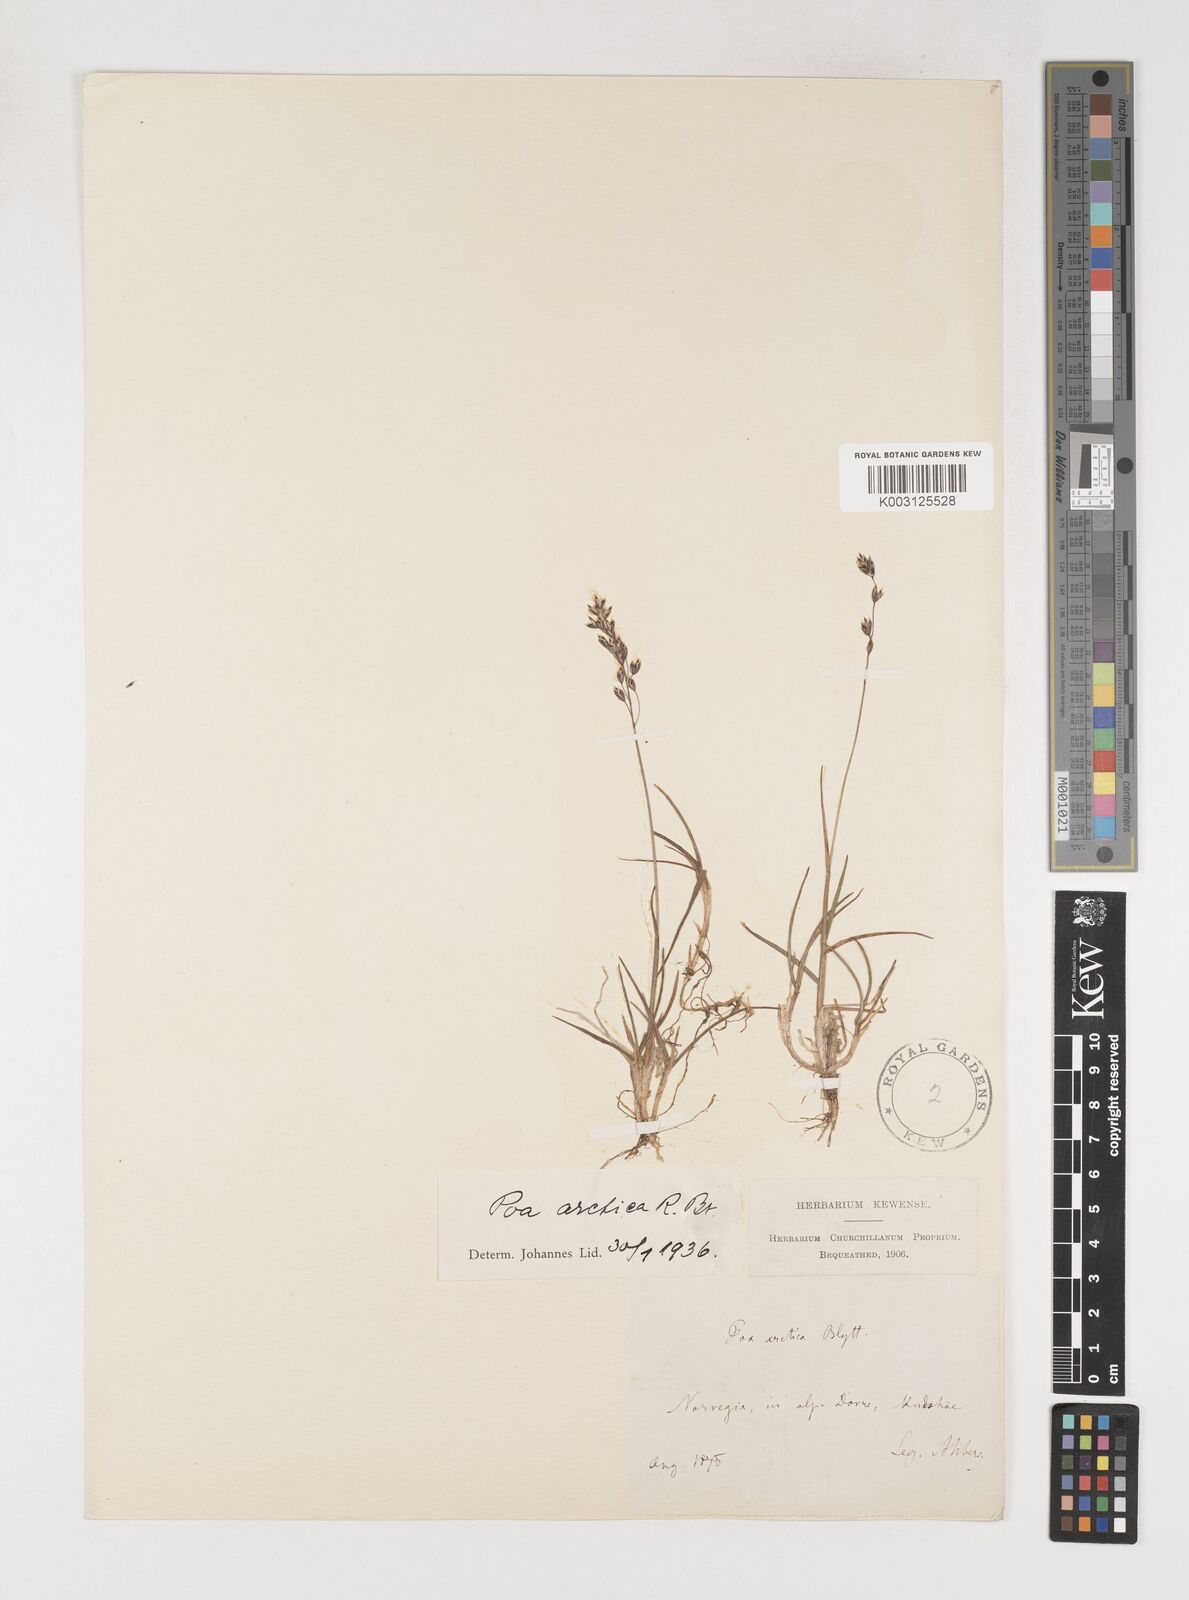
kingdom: Plantae
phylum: Tracheophyta
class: Liliopsida
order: Poales
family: Poaceae
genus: Poa
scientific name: Poa arctica
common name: Arctic bluegrass
